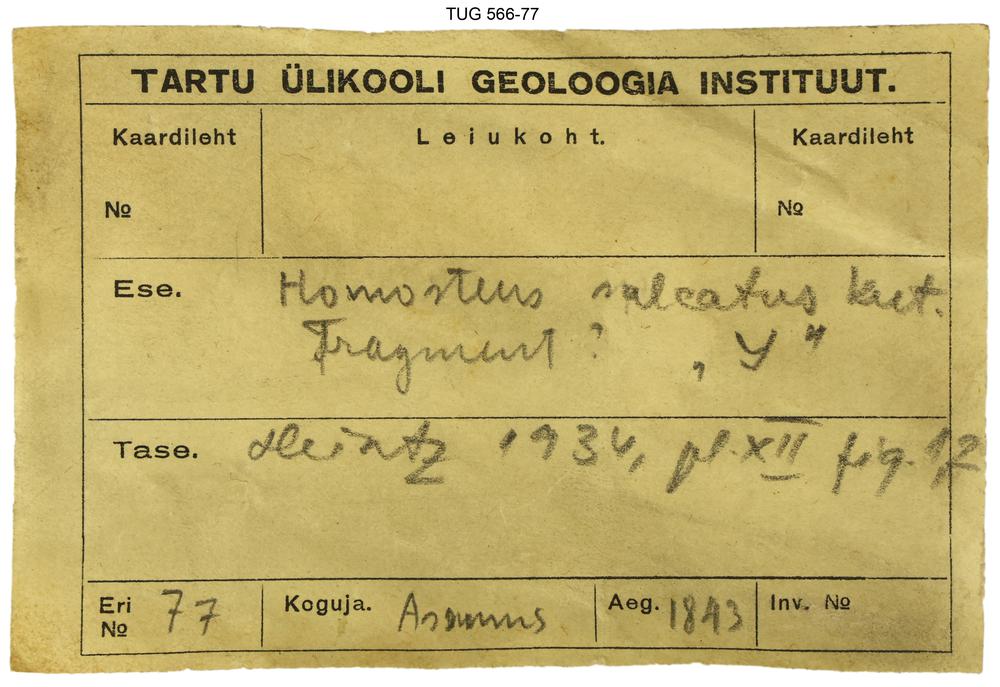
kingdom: Animalia
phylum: Chordata
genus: Homosteus
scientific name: Homosteus sulcatus
